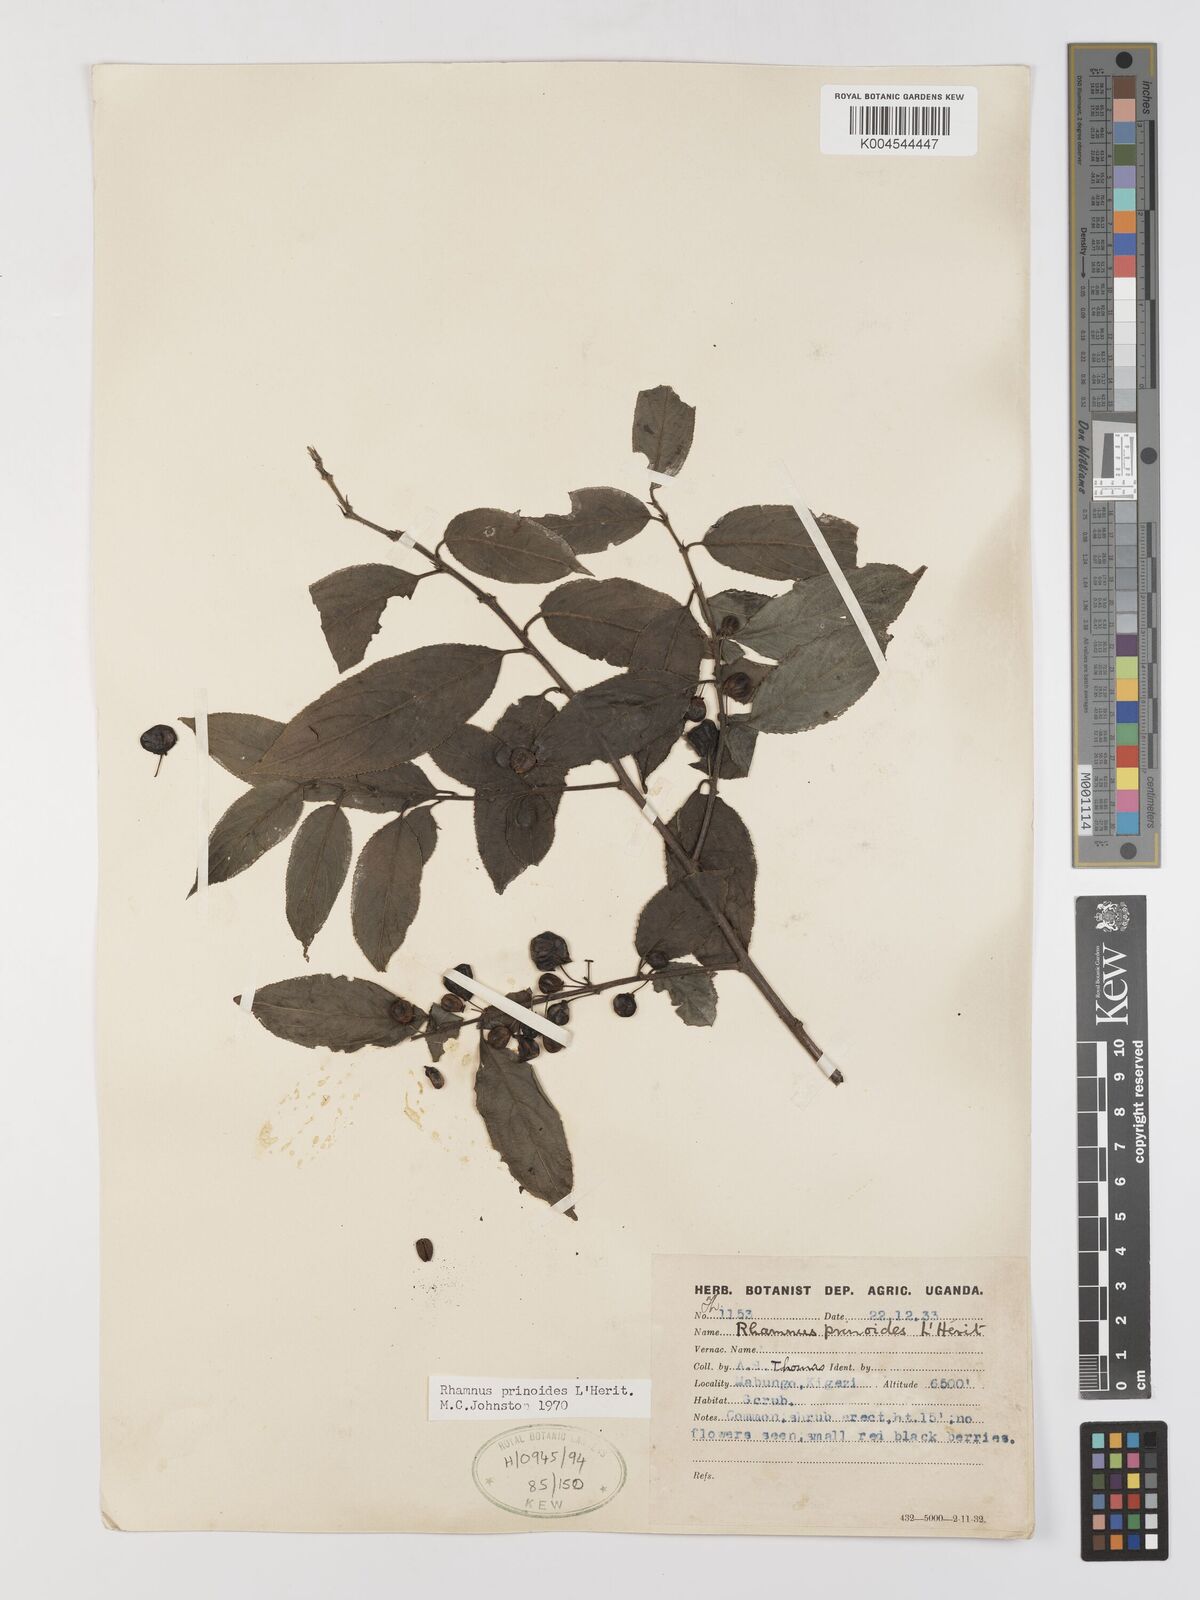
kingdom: Plantae
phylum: Tracheophyta
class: Magnoliopsida
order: Rosales
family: Rhamnaceae
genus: Rhamnus
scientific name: Rhamnus prinoides
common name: Dogwood
